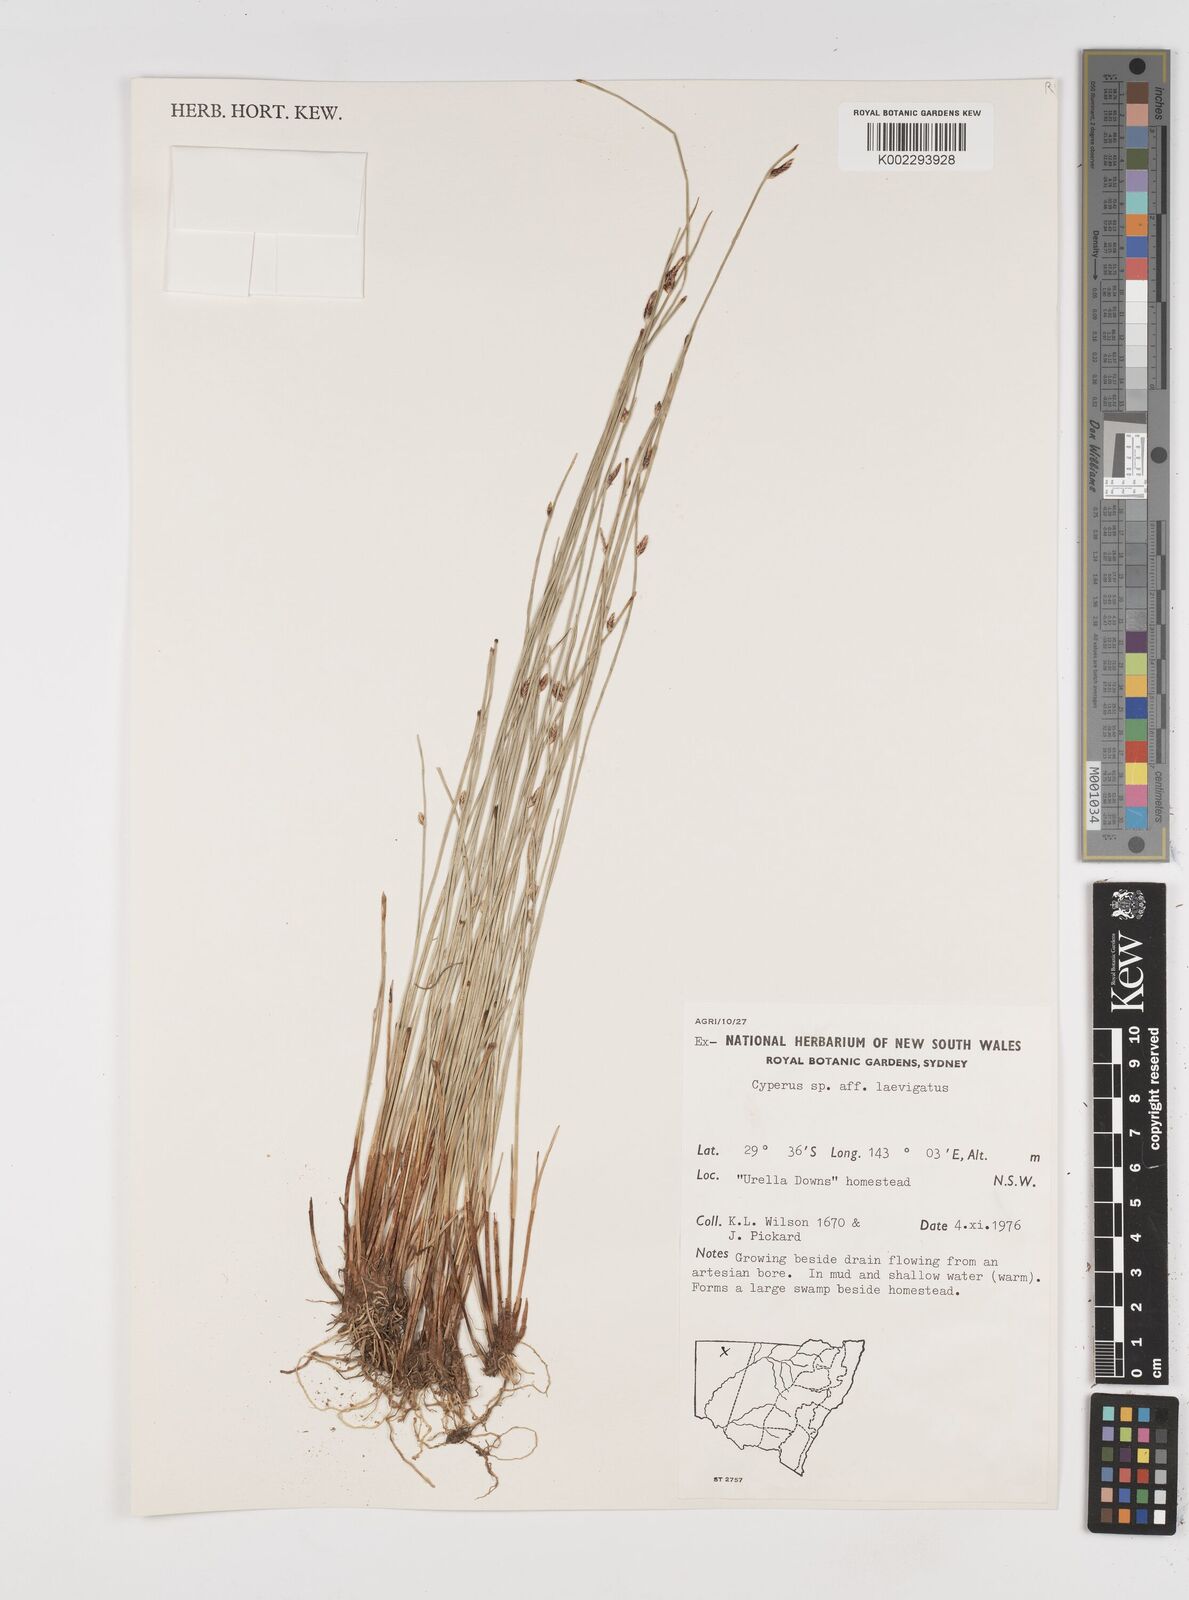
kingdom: Plantae
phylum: Tracheophyta
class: Liliopsida
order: Poales
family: Cyperaceae
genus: Cyperus
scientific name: Cyperus laevigatus
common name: Smooth flat sedge
